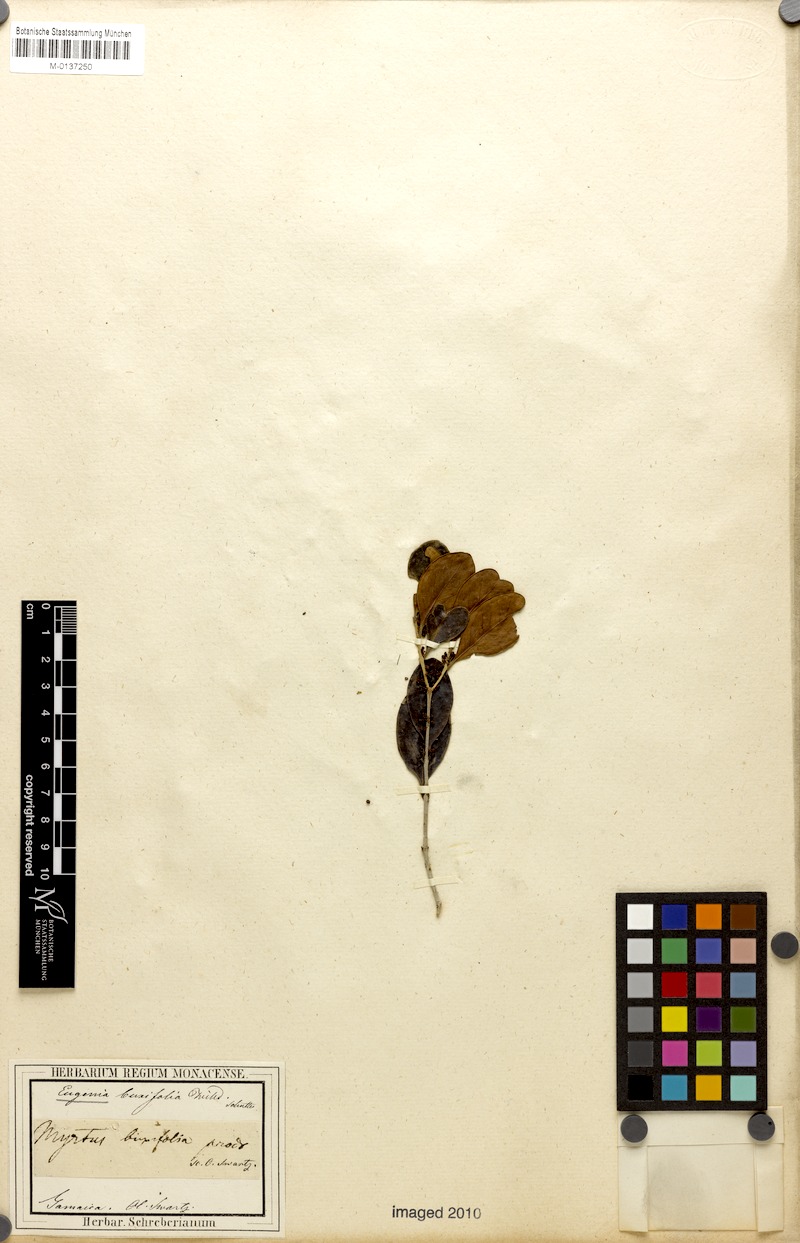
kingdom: Plantae
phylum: Tracheophyta
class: Magnoliopsida
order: Myrtales
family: Myrtaceae
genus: Eugenia
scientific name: Eugenia foetida
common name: White wattling
